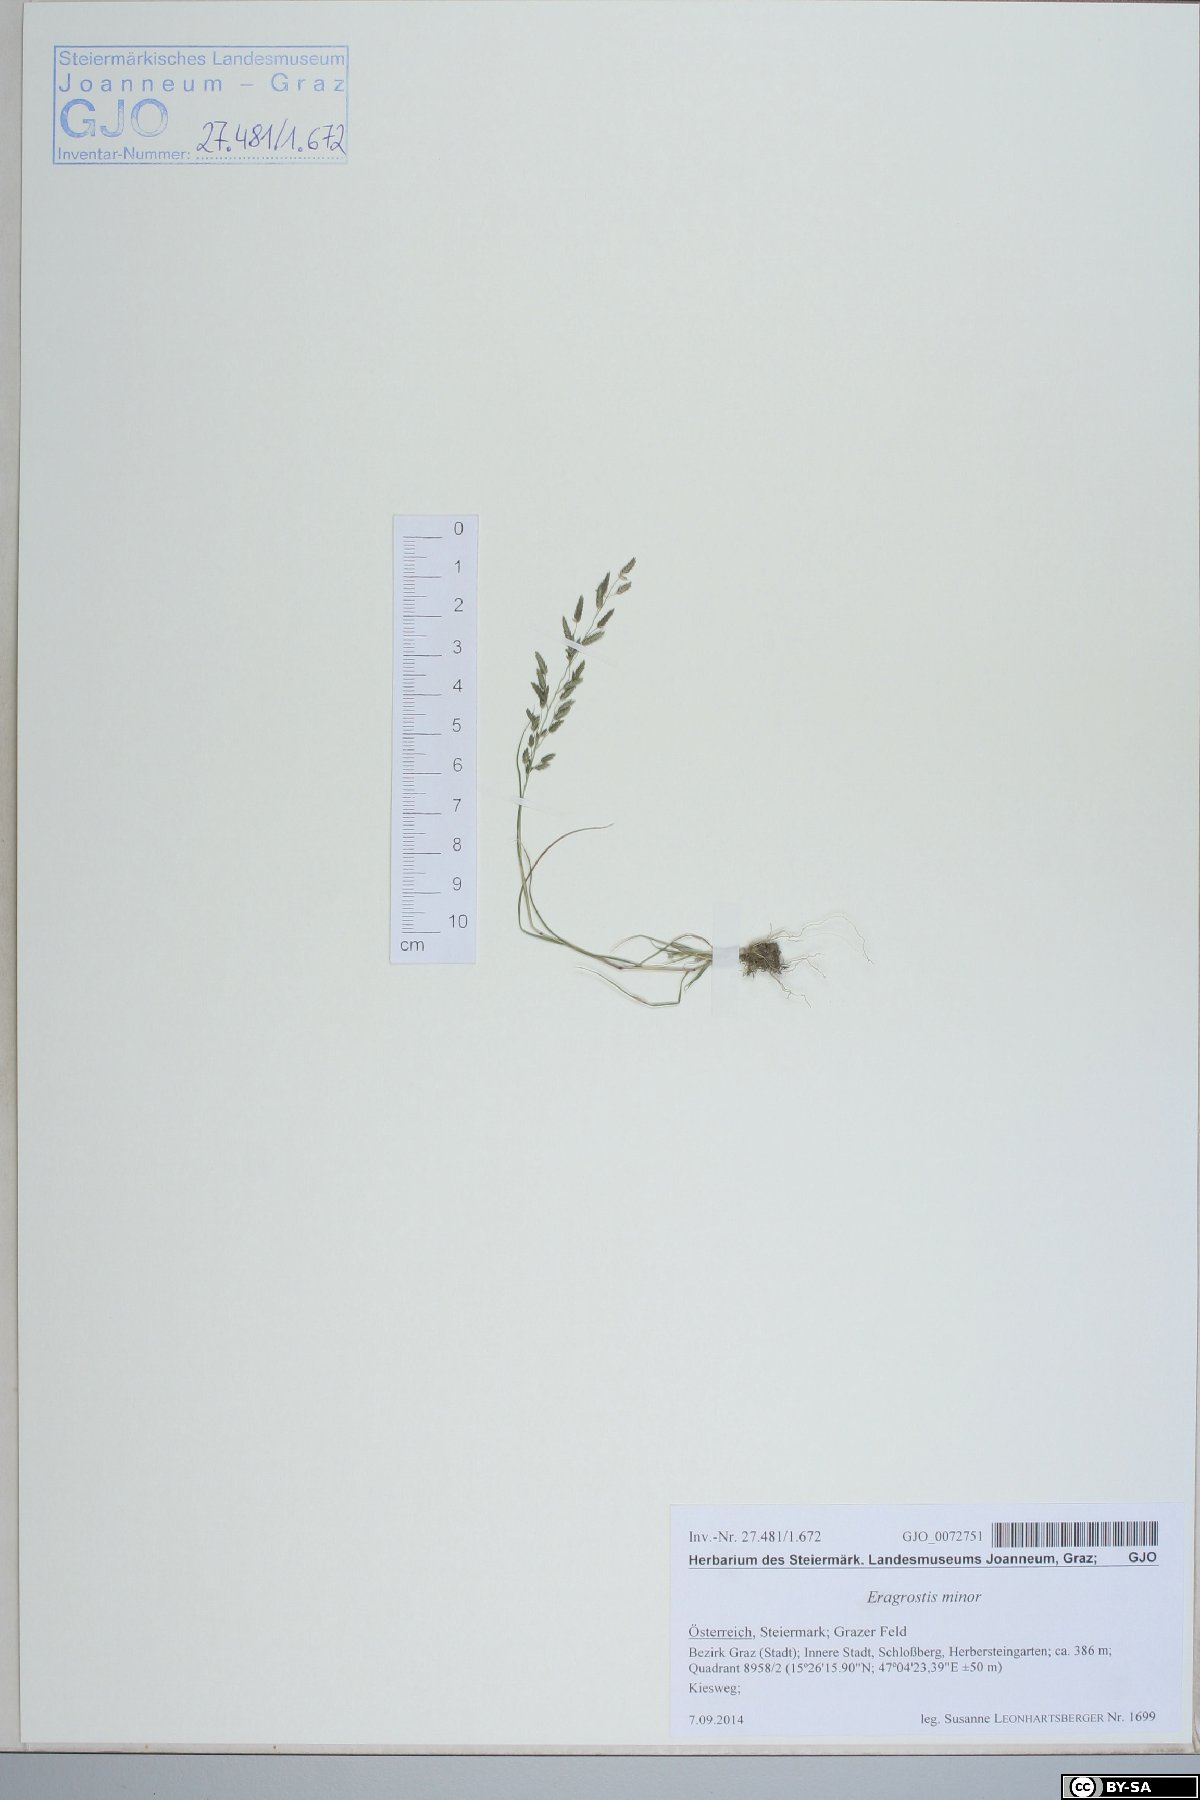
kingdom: Plantae
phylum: Tracheophyta
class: Liliopsida
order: Poales
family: Poaceae
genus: Eragrostis
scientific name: Eragrostis minor
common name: Small love-grass
